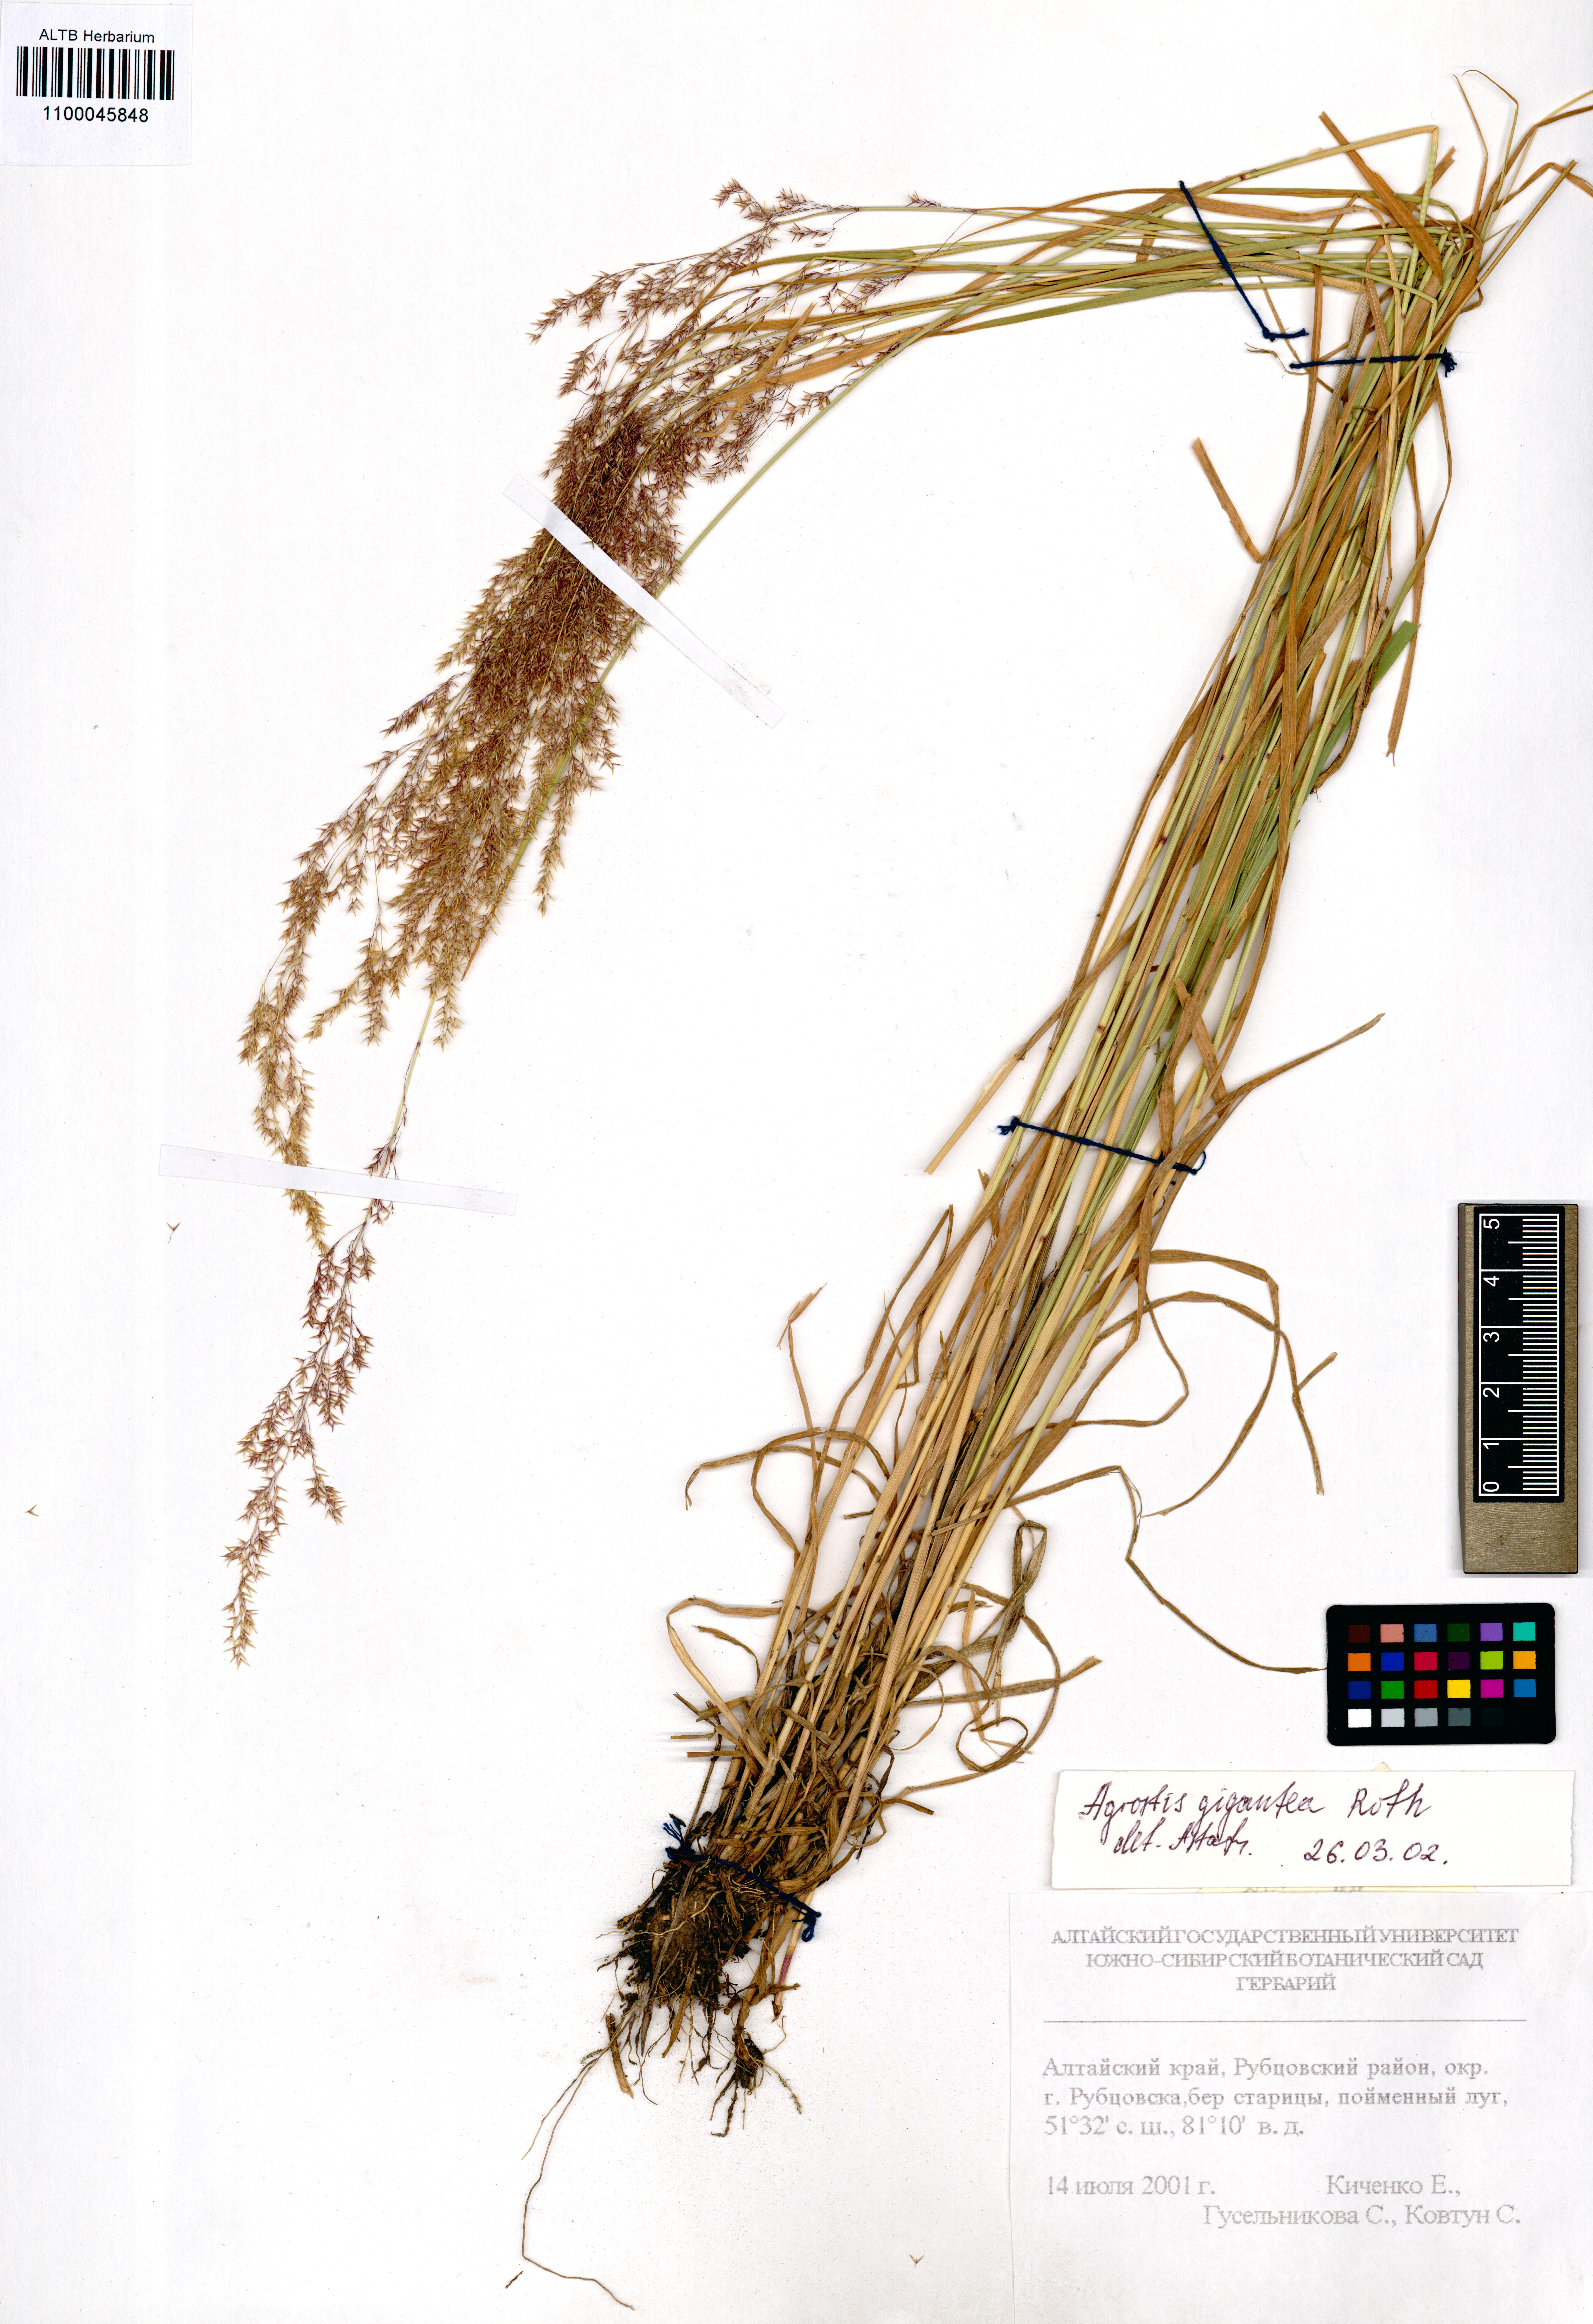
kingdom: Plantae
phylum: Tracheophyta
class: Liliopsida
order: Poales
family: Poaceae
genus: Agrostis
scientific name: Agrostis gigantea
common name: Black bent
